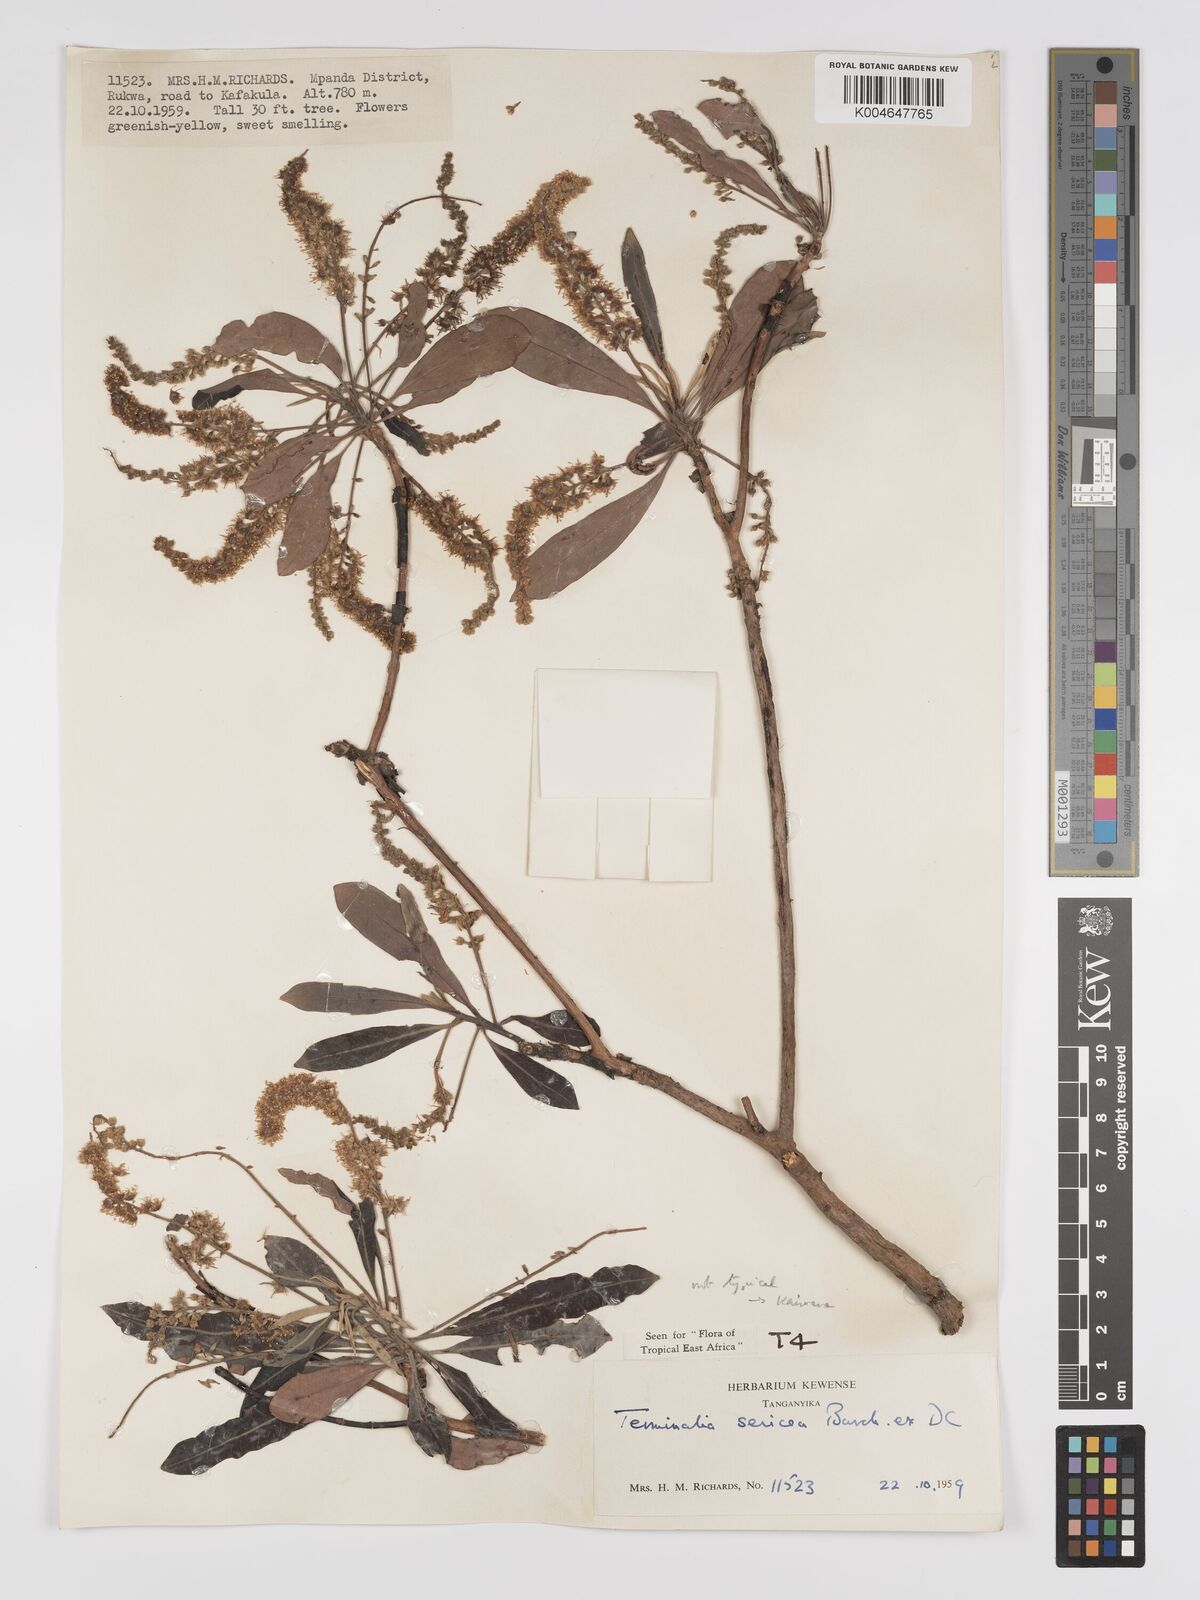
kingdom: Plantae
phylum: Tracheophyta
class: Magnoliopsida
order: Myrtales
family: Combretaceae
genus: Terminalia
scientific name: Terminalia
